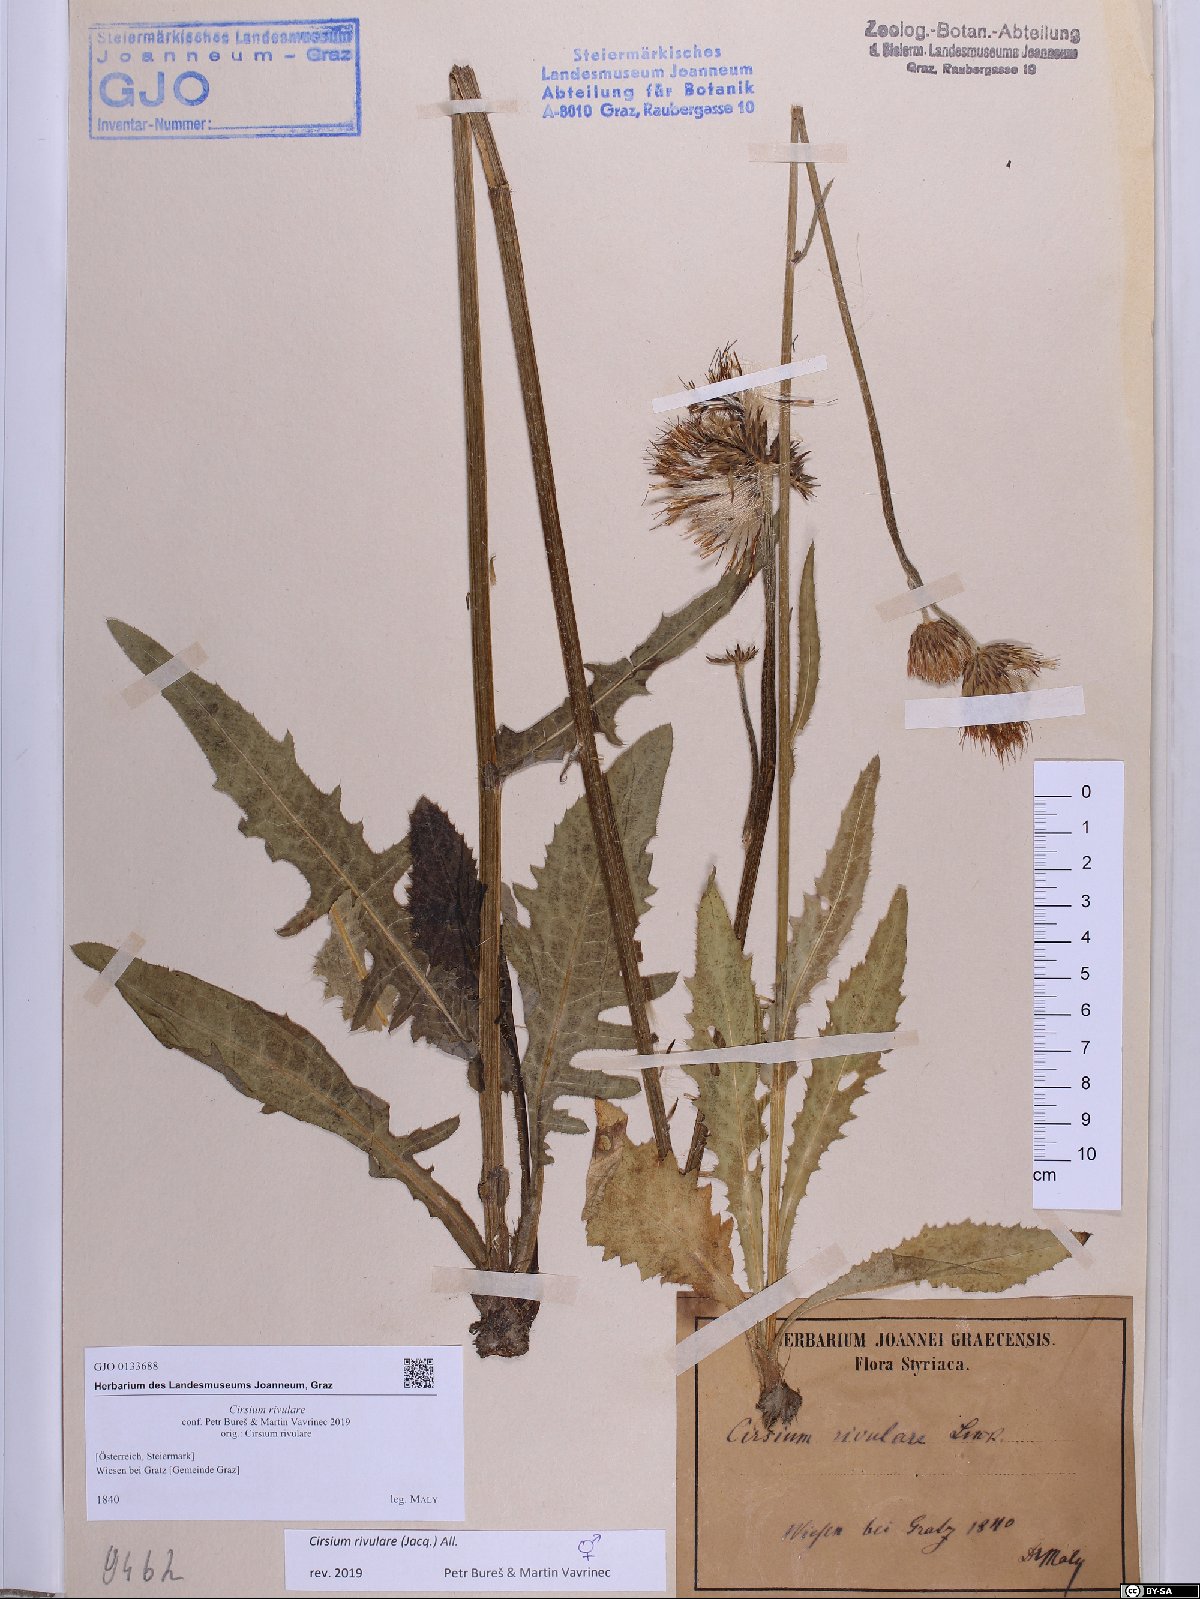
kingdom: Plantae
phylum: Tracheophyta
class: Magnoliopsida
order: Asterales
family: Asteraceae
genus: Cirsium
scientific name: Cirsium rivulare
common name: Brook thistle
